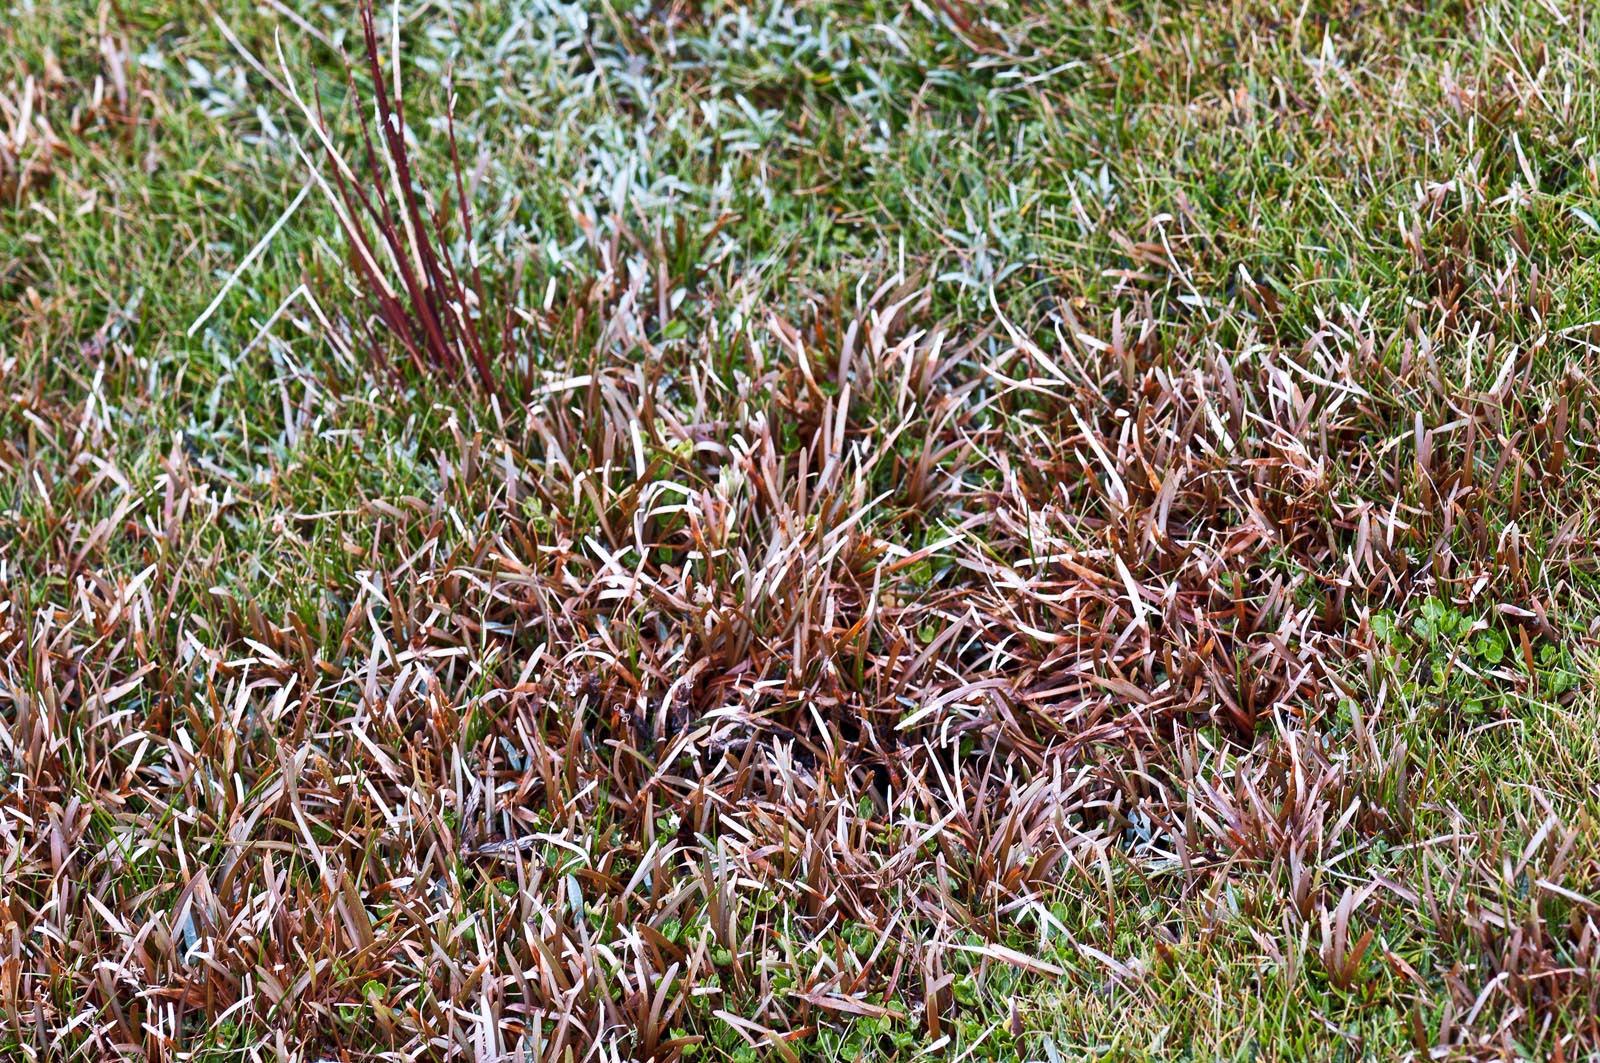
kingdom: Plantae
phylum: Tracheophyta
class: Liliopsida
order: Poales
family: Cyperaceae
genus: Carex
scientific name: Carex talbotii
